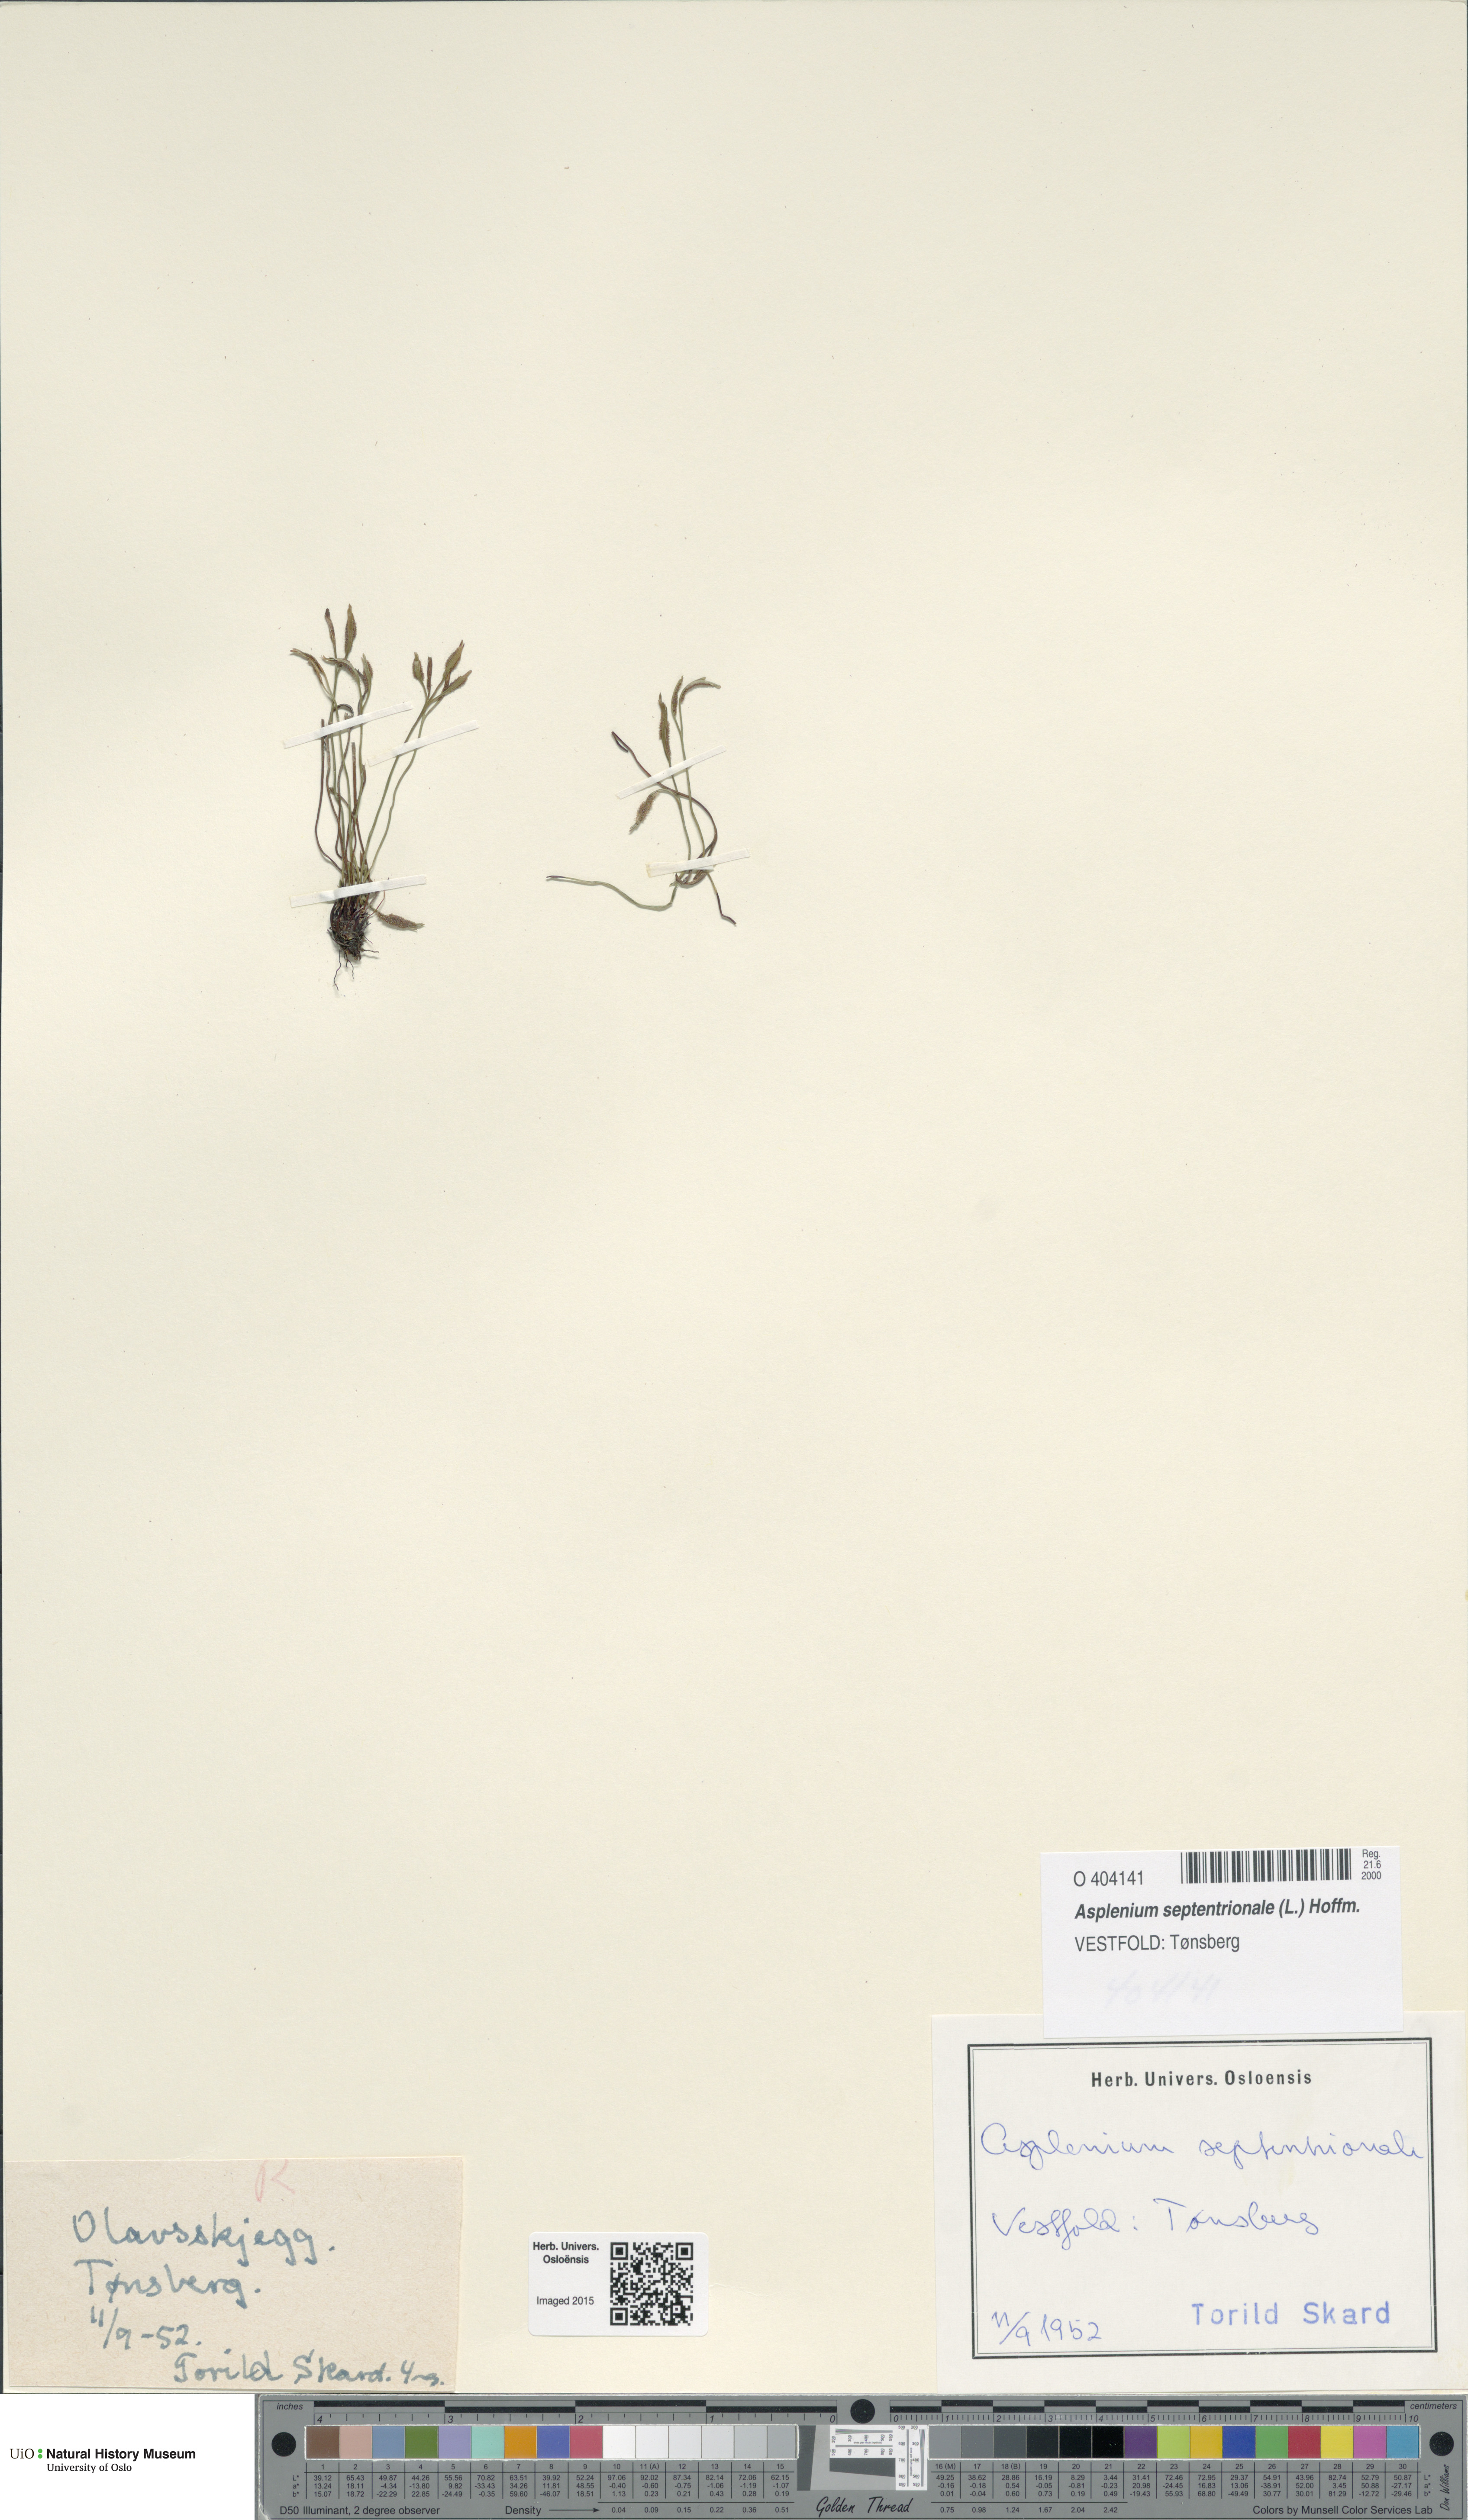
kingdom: Plantae
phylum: Tracheophyta
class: Polypodiopsida
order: Polypodiales
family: Aspleniaceae
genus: Asplenium
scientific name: Asplenium septentrionale
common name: Forked spleenwort
